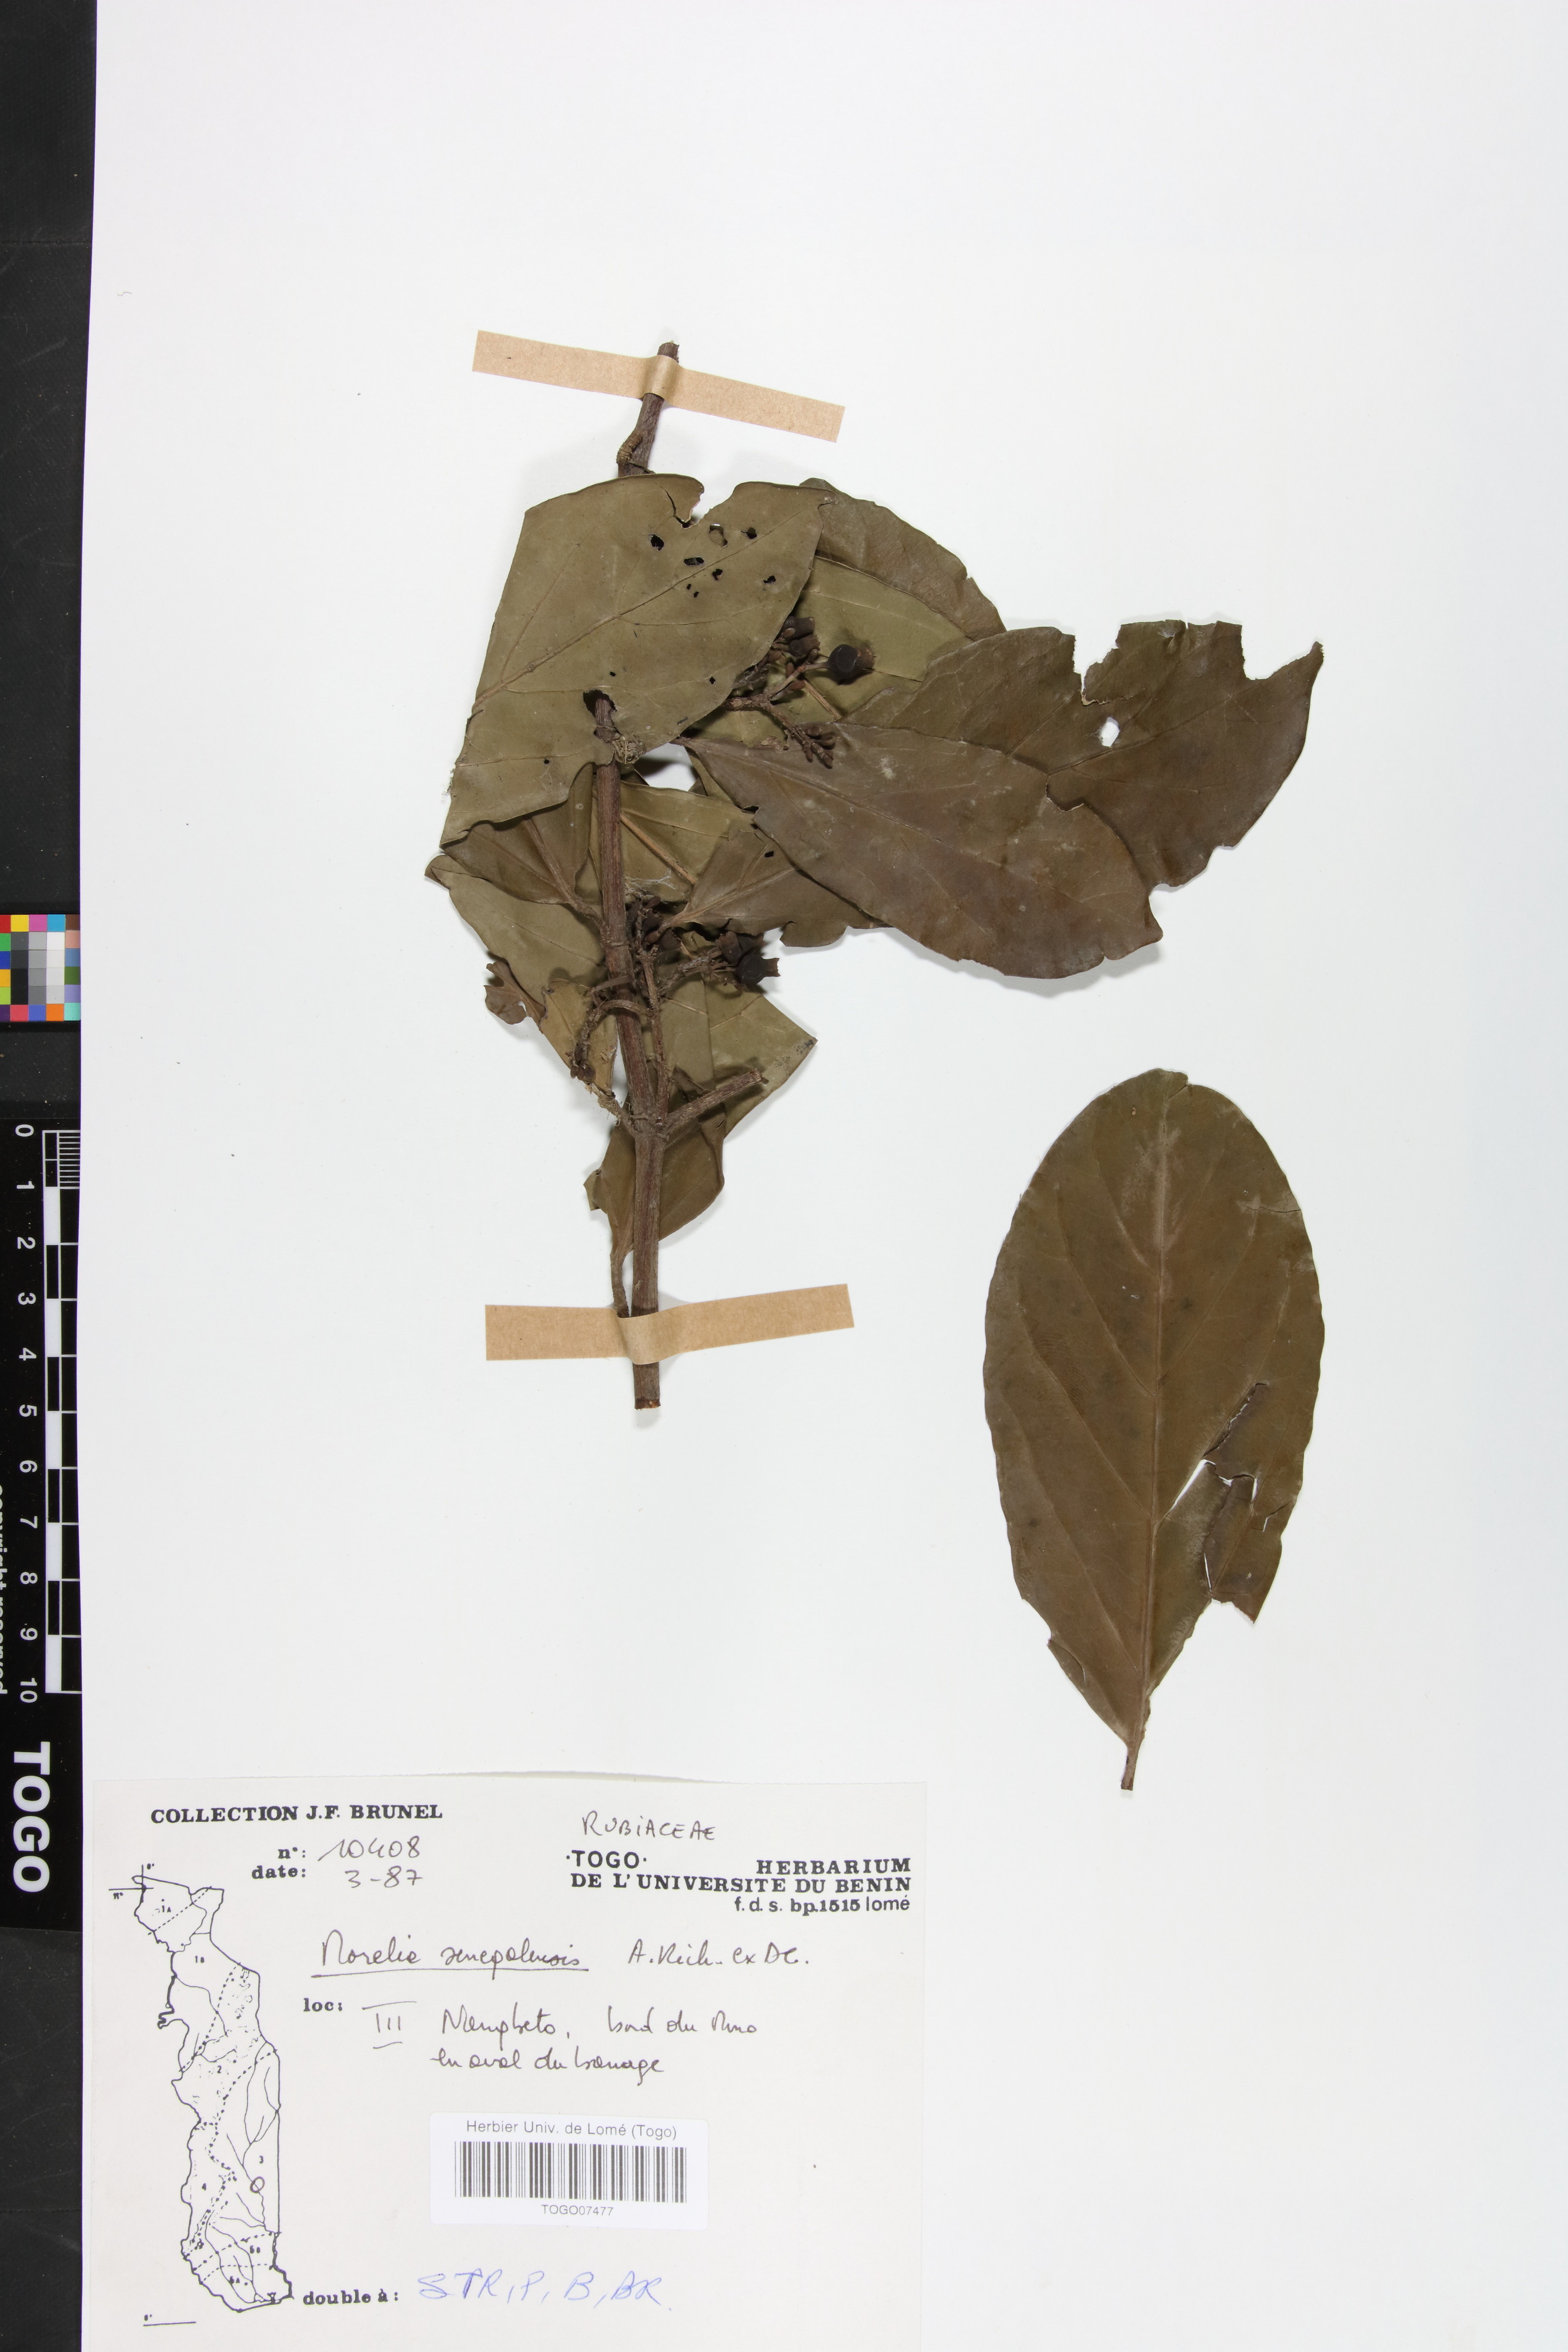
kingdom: Plantae
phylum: Tracheophyta
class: Magnoliopsida
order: Gentianales
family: Rubiaceae
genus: Morelia
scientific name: Morelia senegalensis
